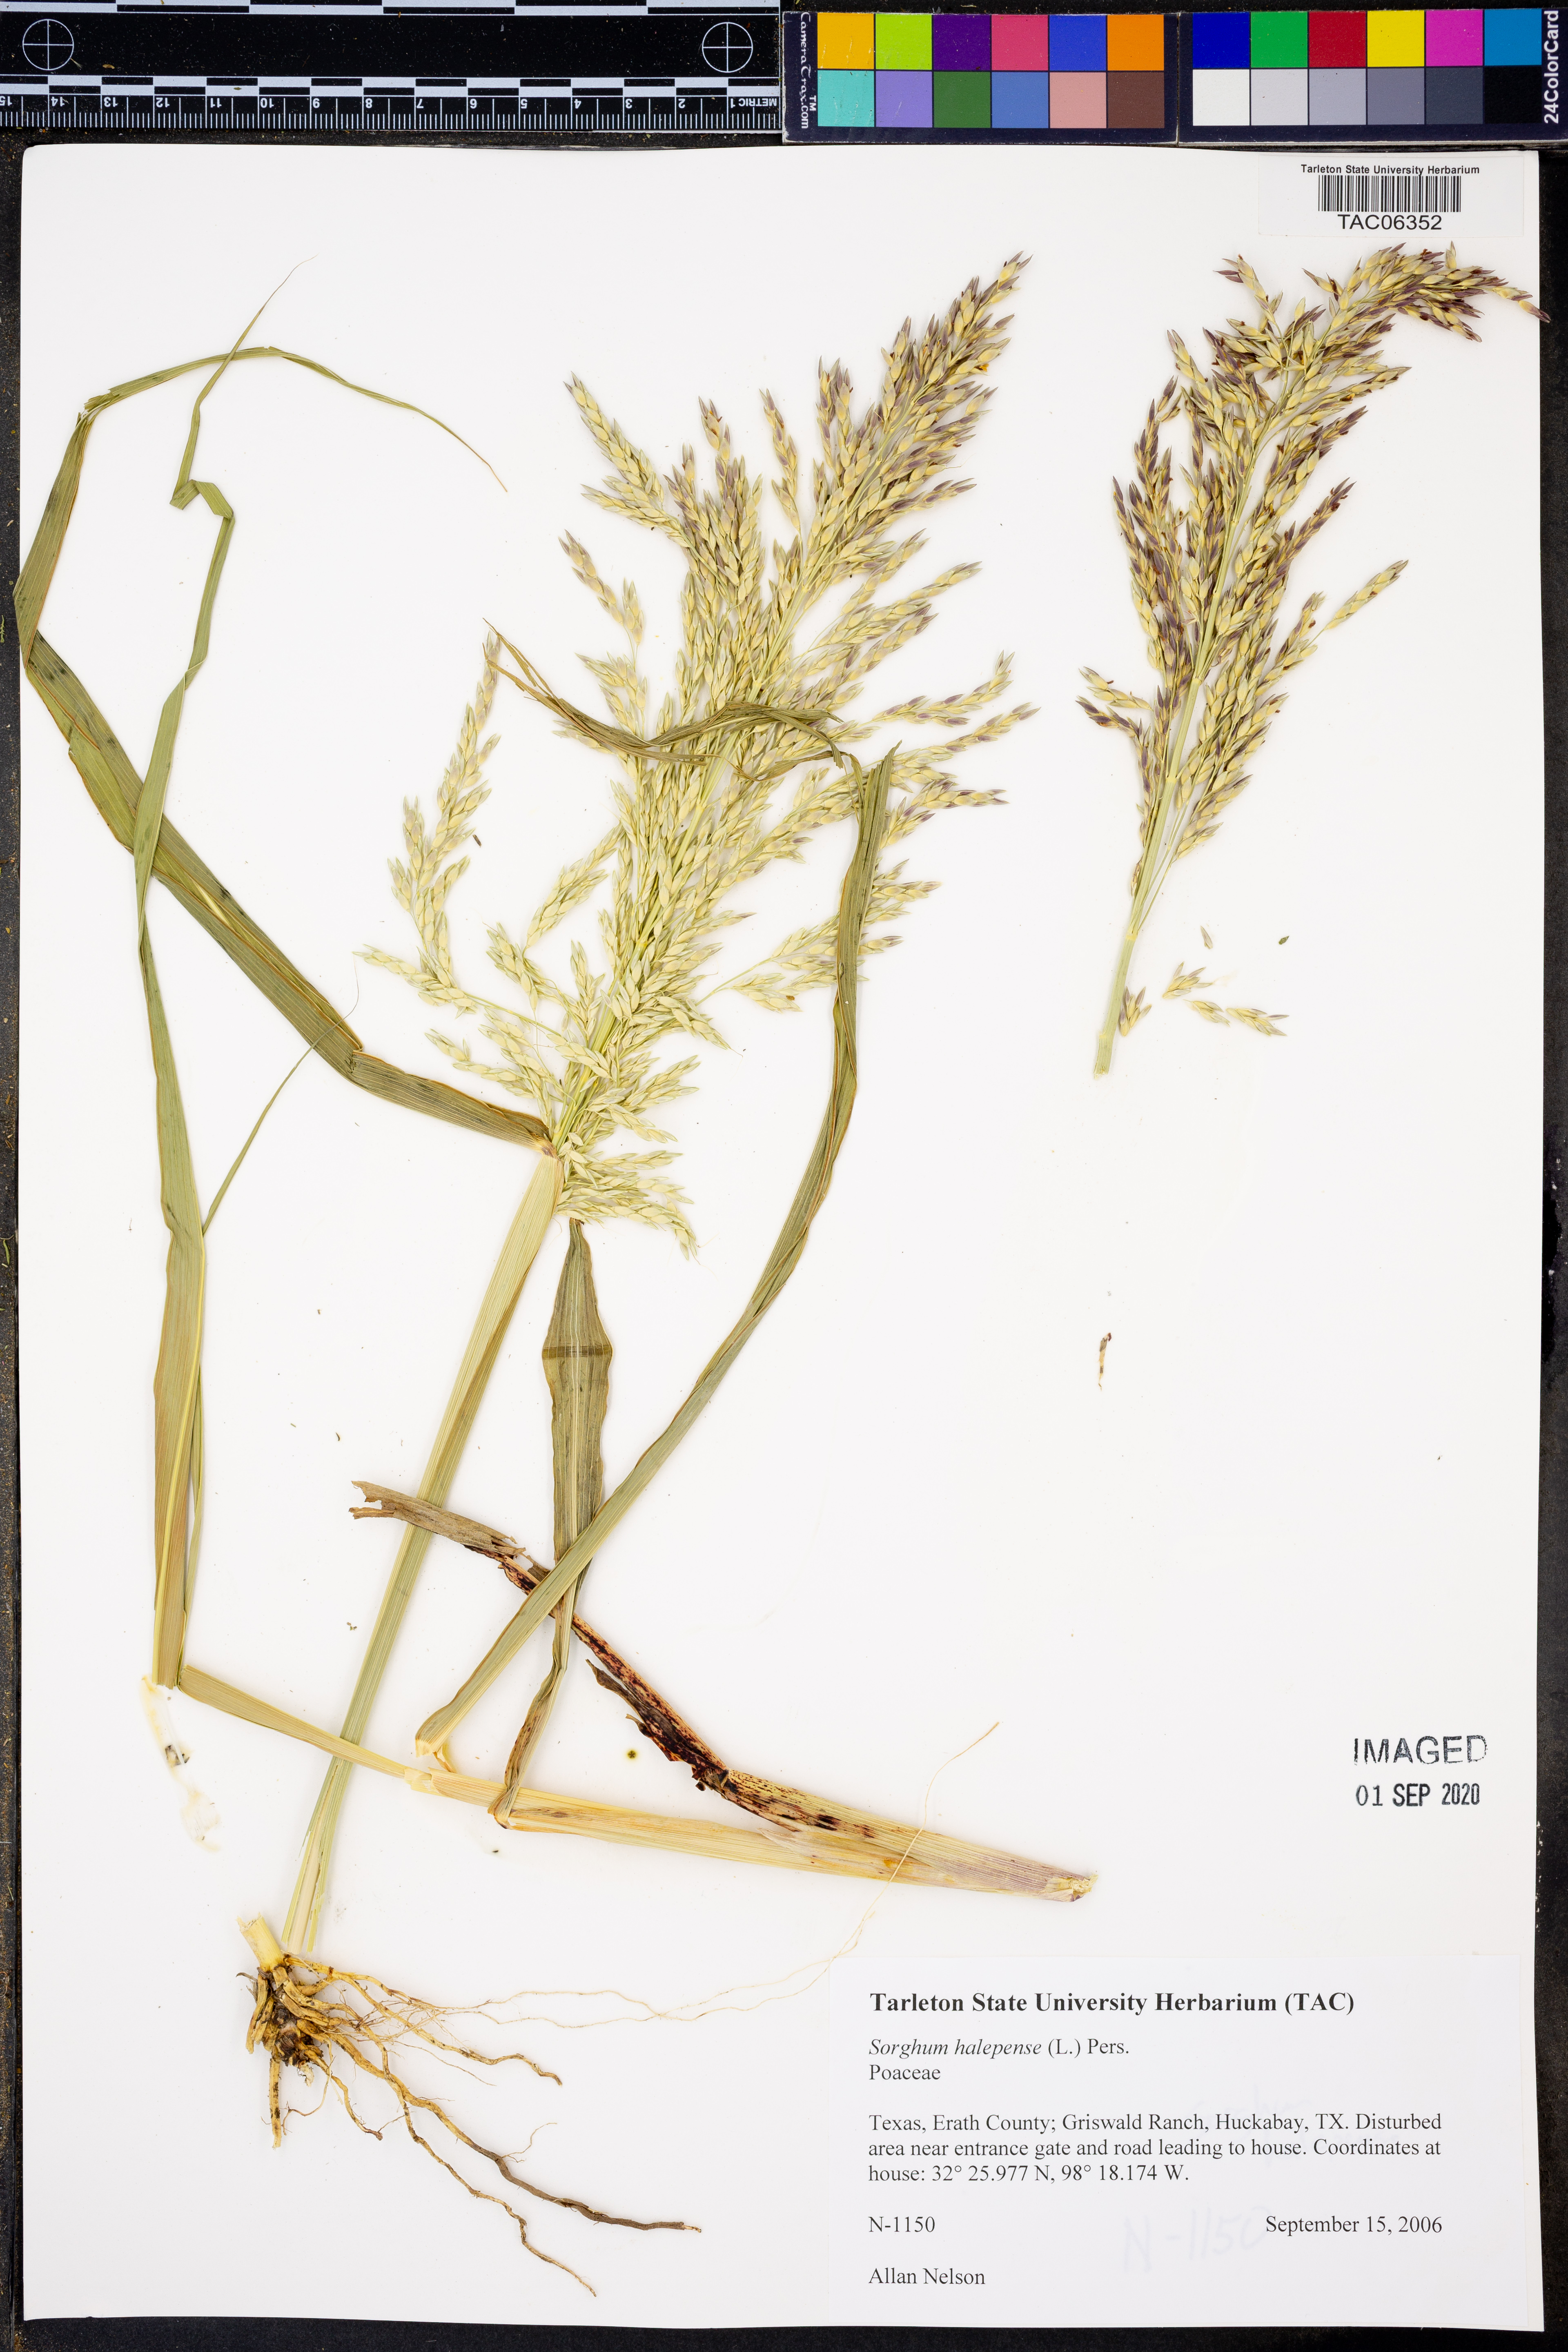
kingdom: Plantae
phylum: Tracheophyta
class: Liliopsida
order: Poales
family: Poaceae
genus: Sorghum
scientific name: Sorghum halepense
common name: Johnson-grass
